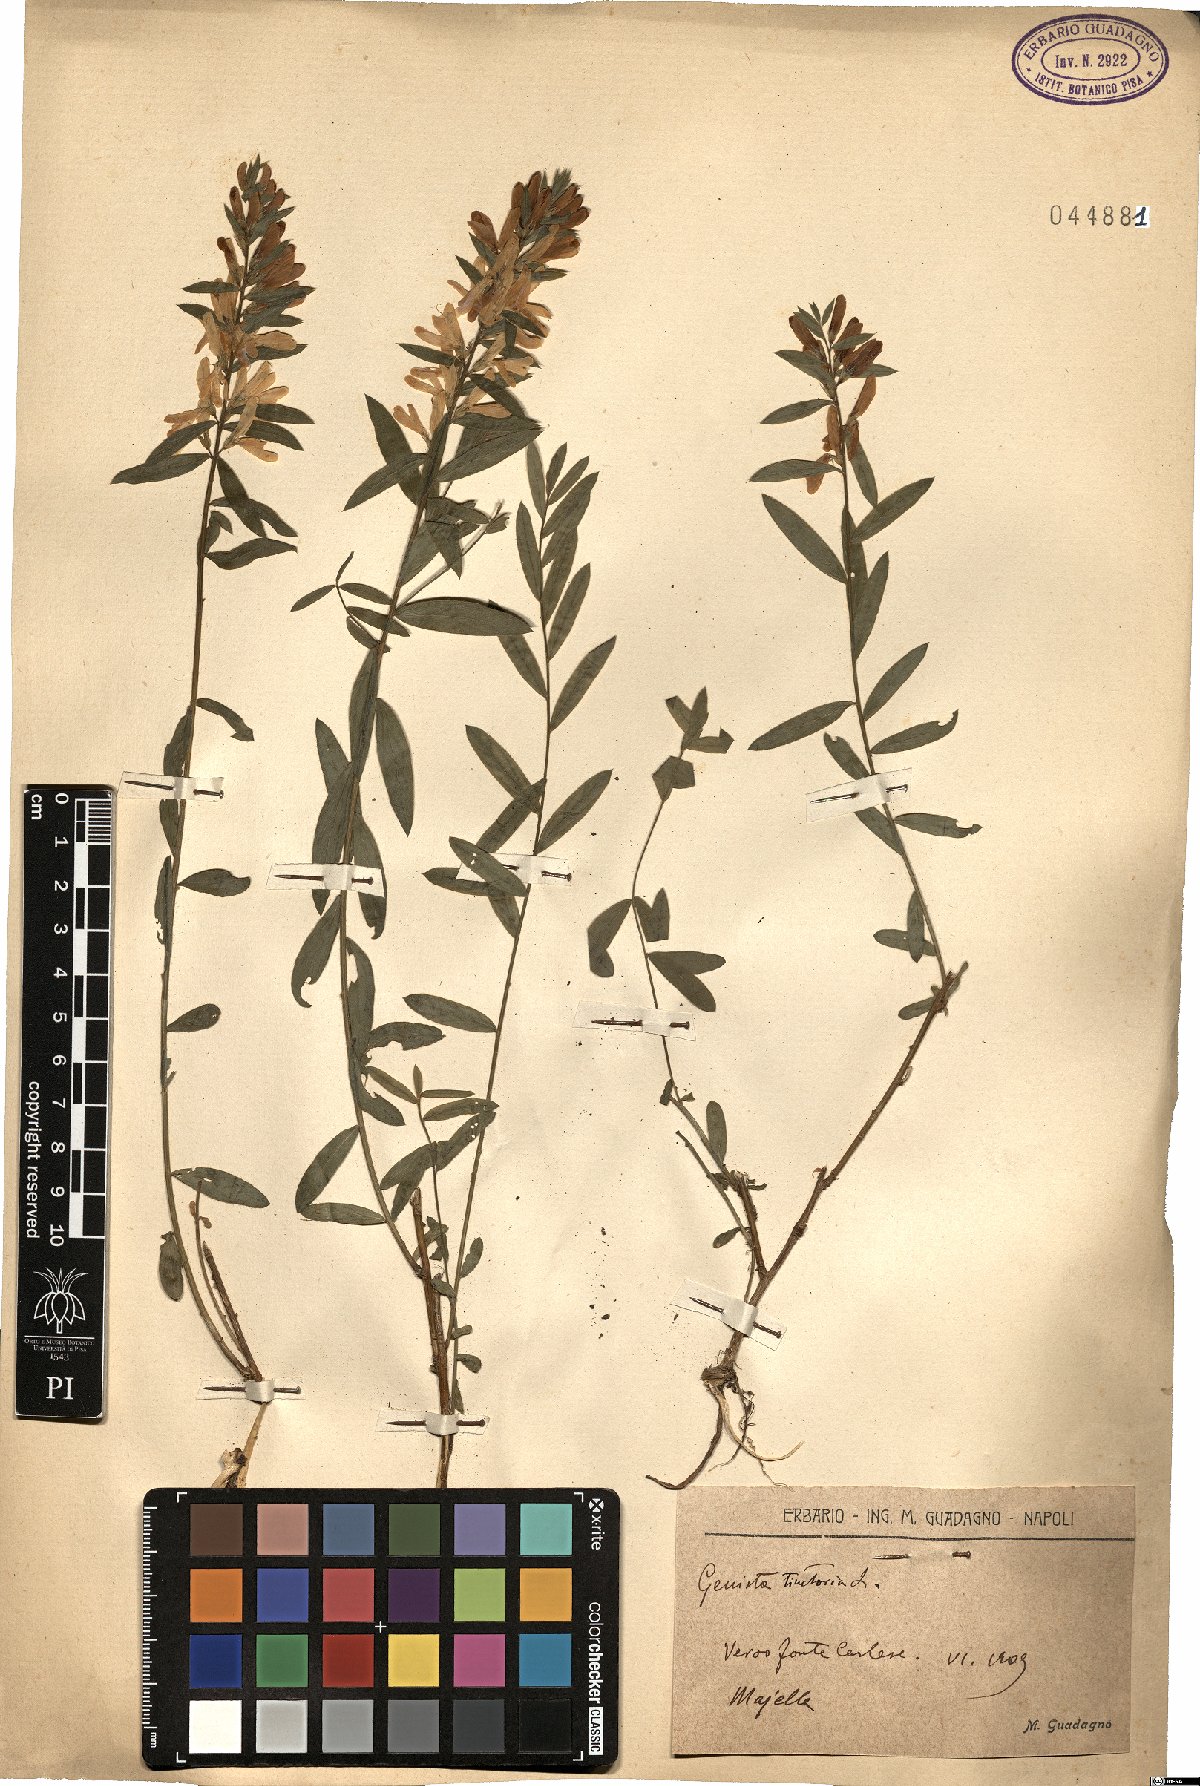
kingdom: Plantae
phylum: Tracheophyta
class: Magnoliopsida
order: Fabales
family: Fabaceae
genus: Genista
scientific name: Genista tinctoria
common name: Dyer's greenweed
